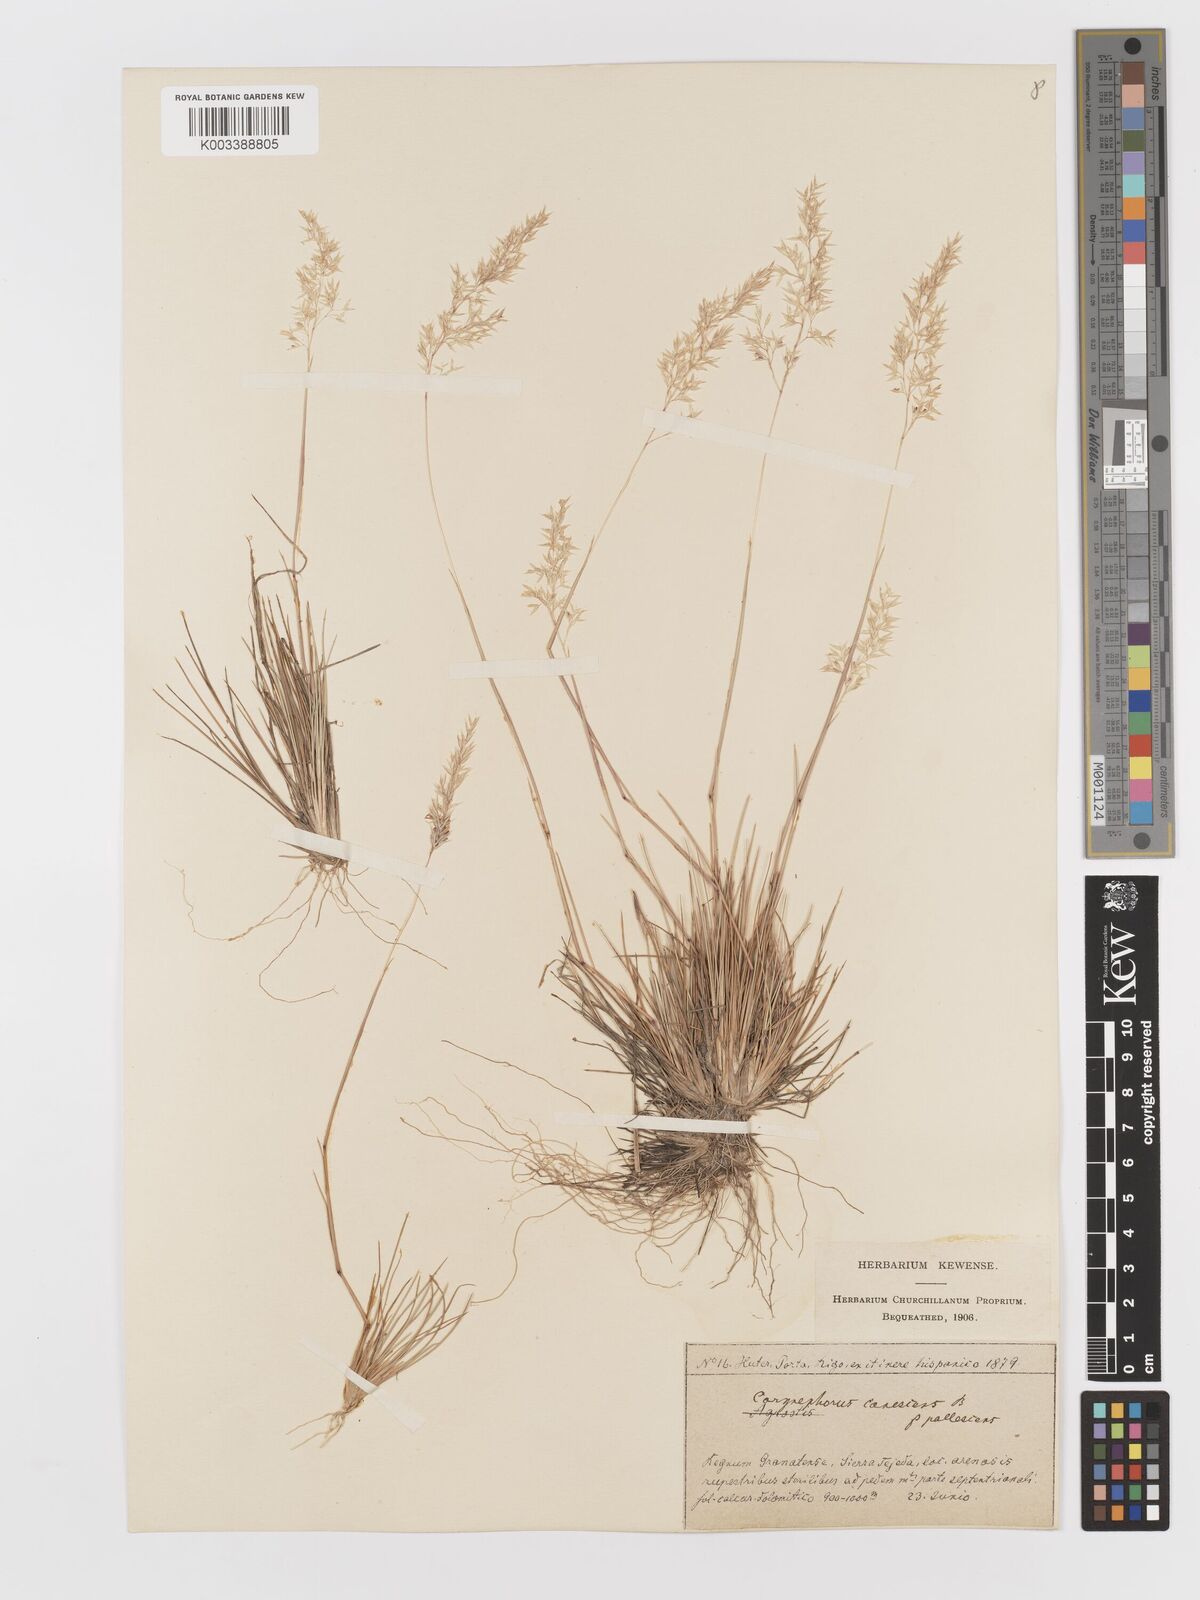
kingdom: Plantae
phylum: Tracheophyta
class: Liliopsida
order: Poales
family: Poaceae
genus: Corynephorus
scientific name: Corynephorus canescens
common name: Grey hair-grass
